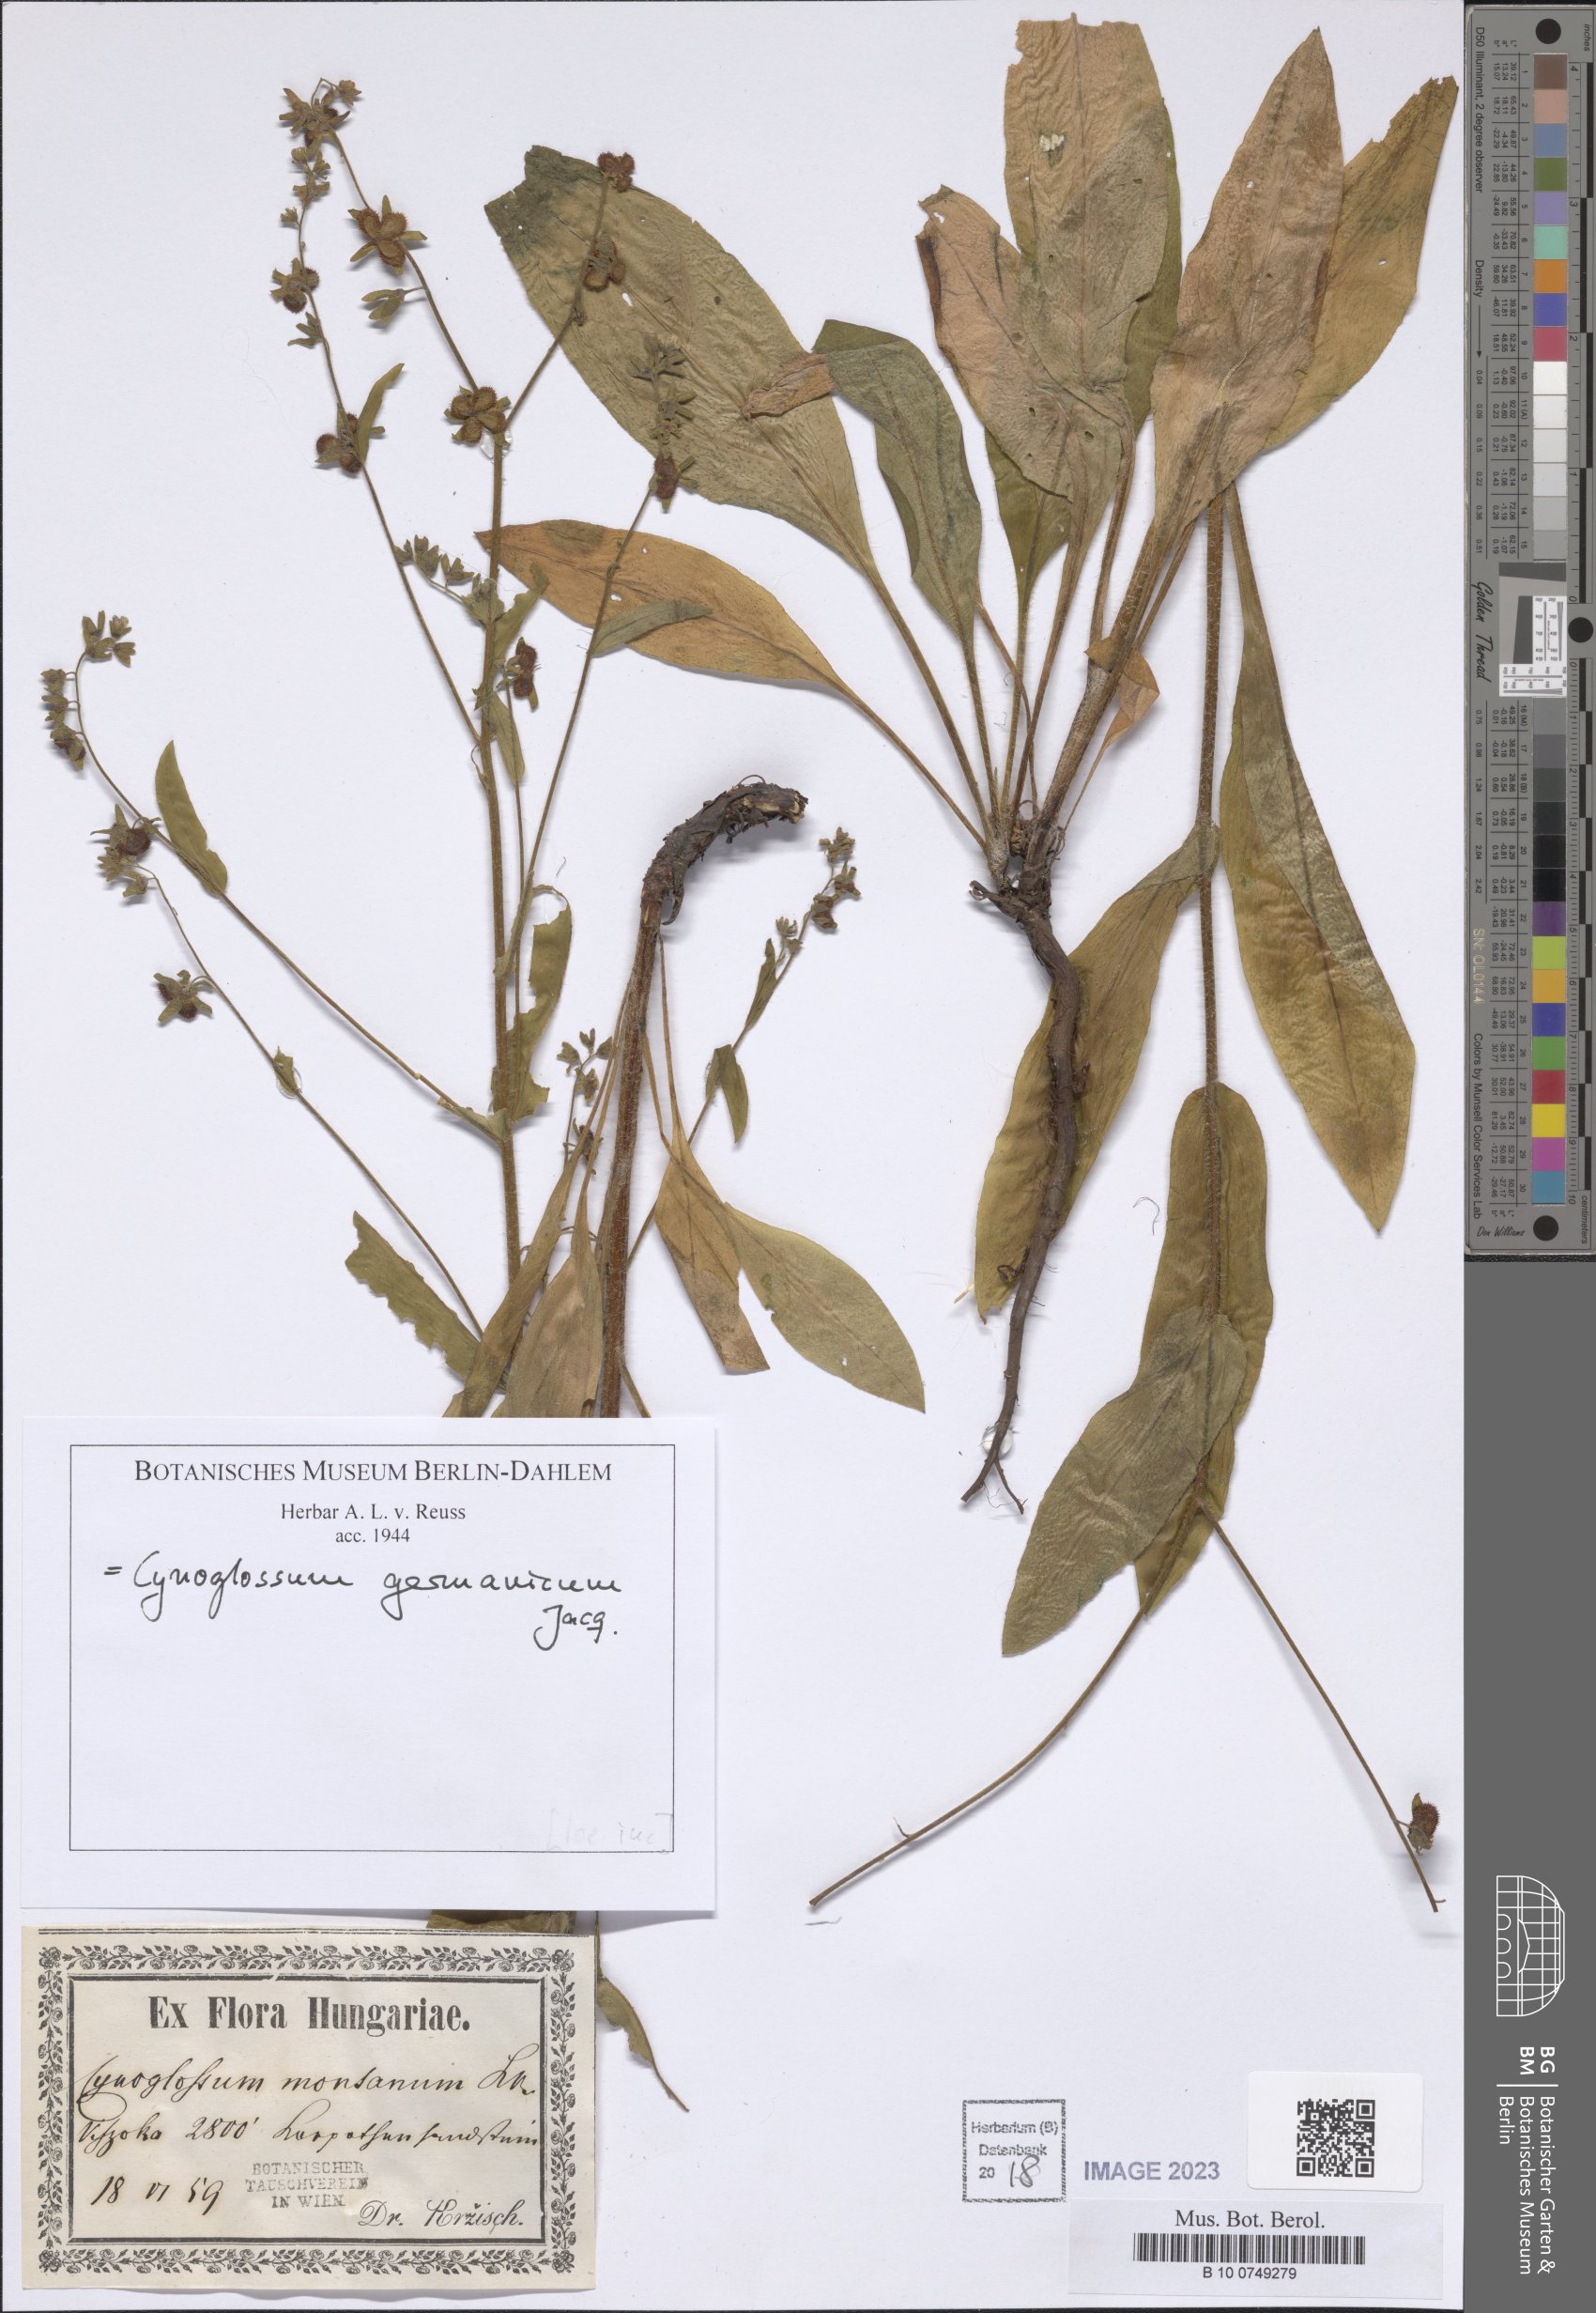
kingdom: Plantae
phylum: Tracheophyta
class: Magnoliopsida
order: Boraginales
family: Boraginaceae
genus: Cynoglossum
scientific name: Cynoglossum germanicum
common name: Green hound's-tongue
